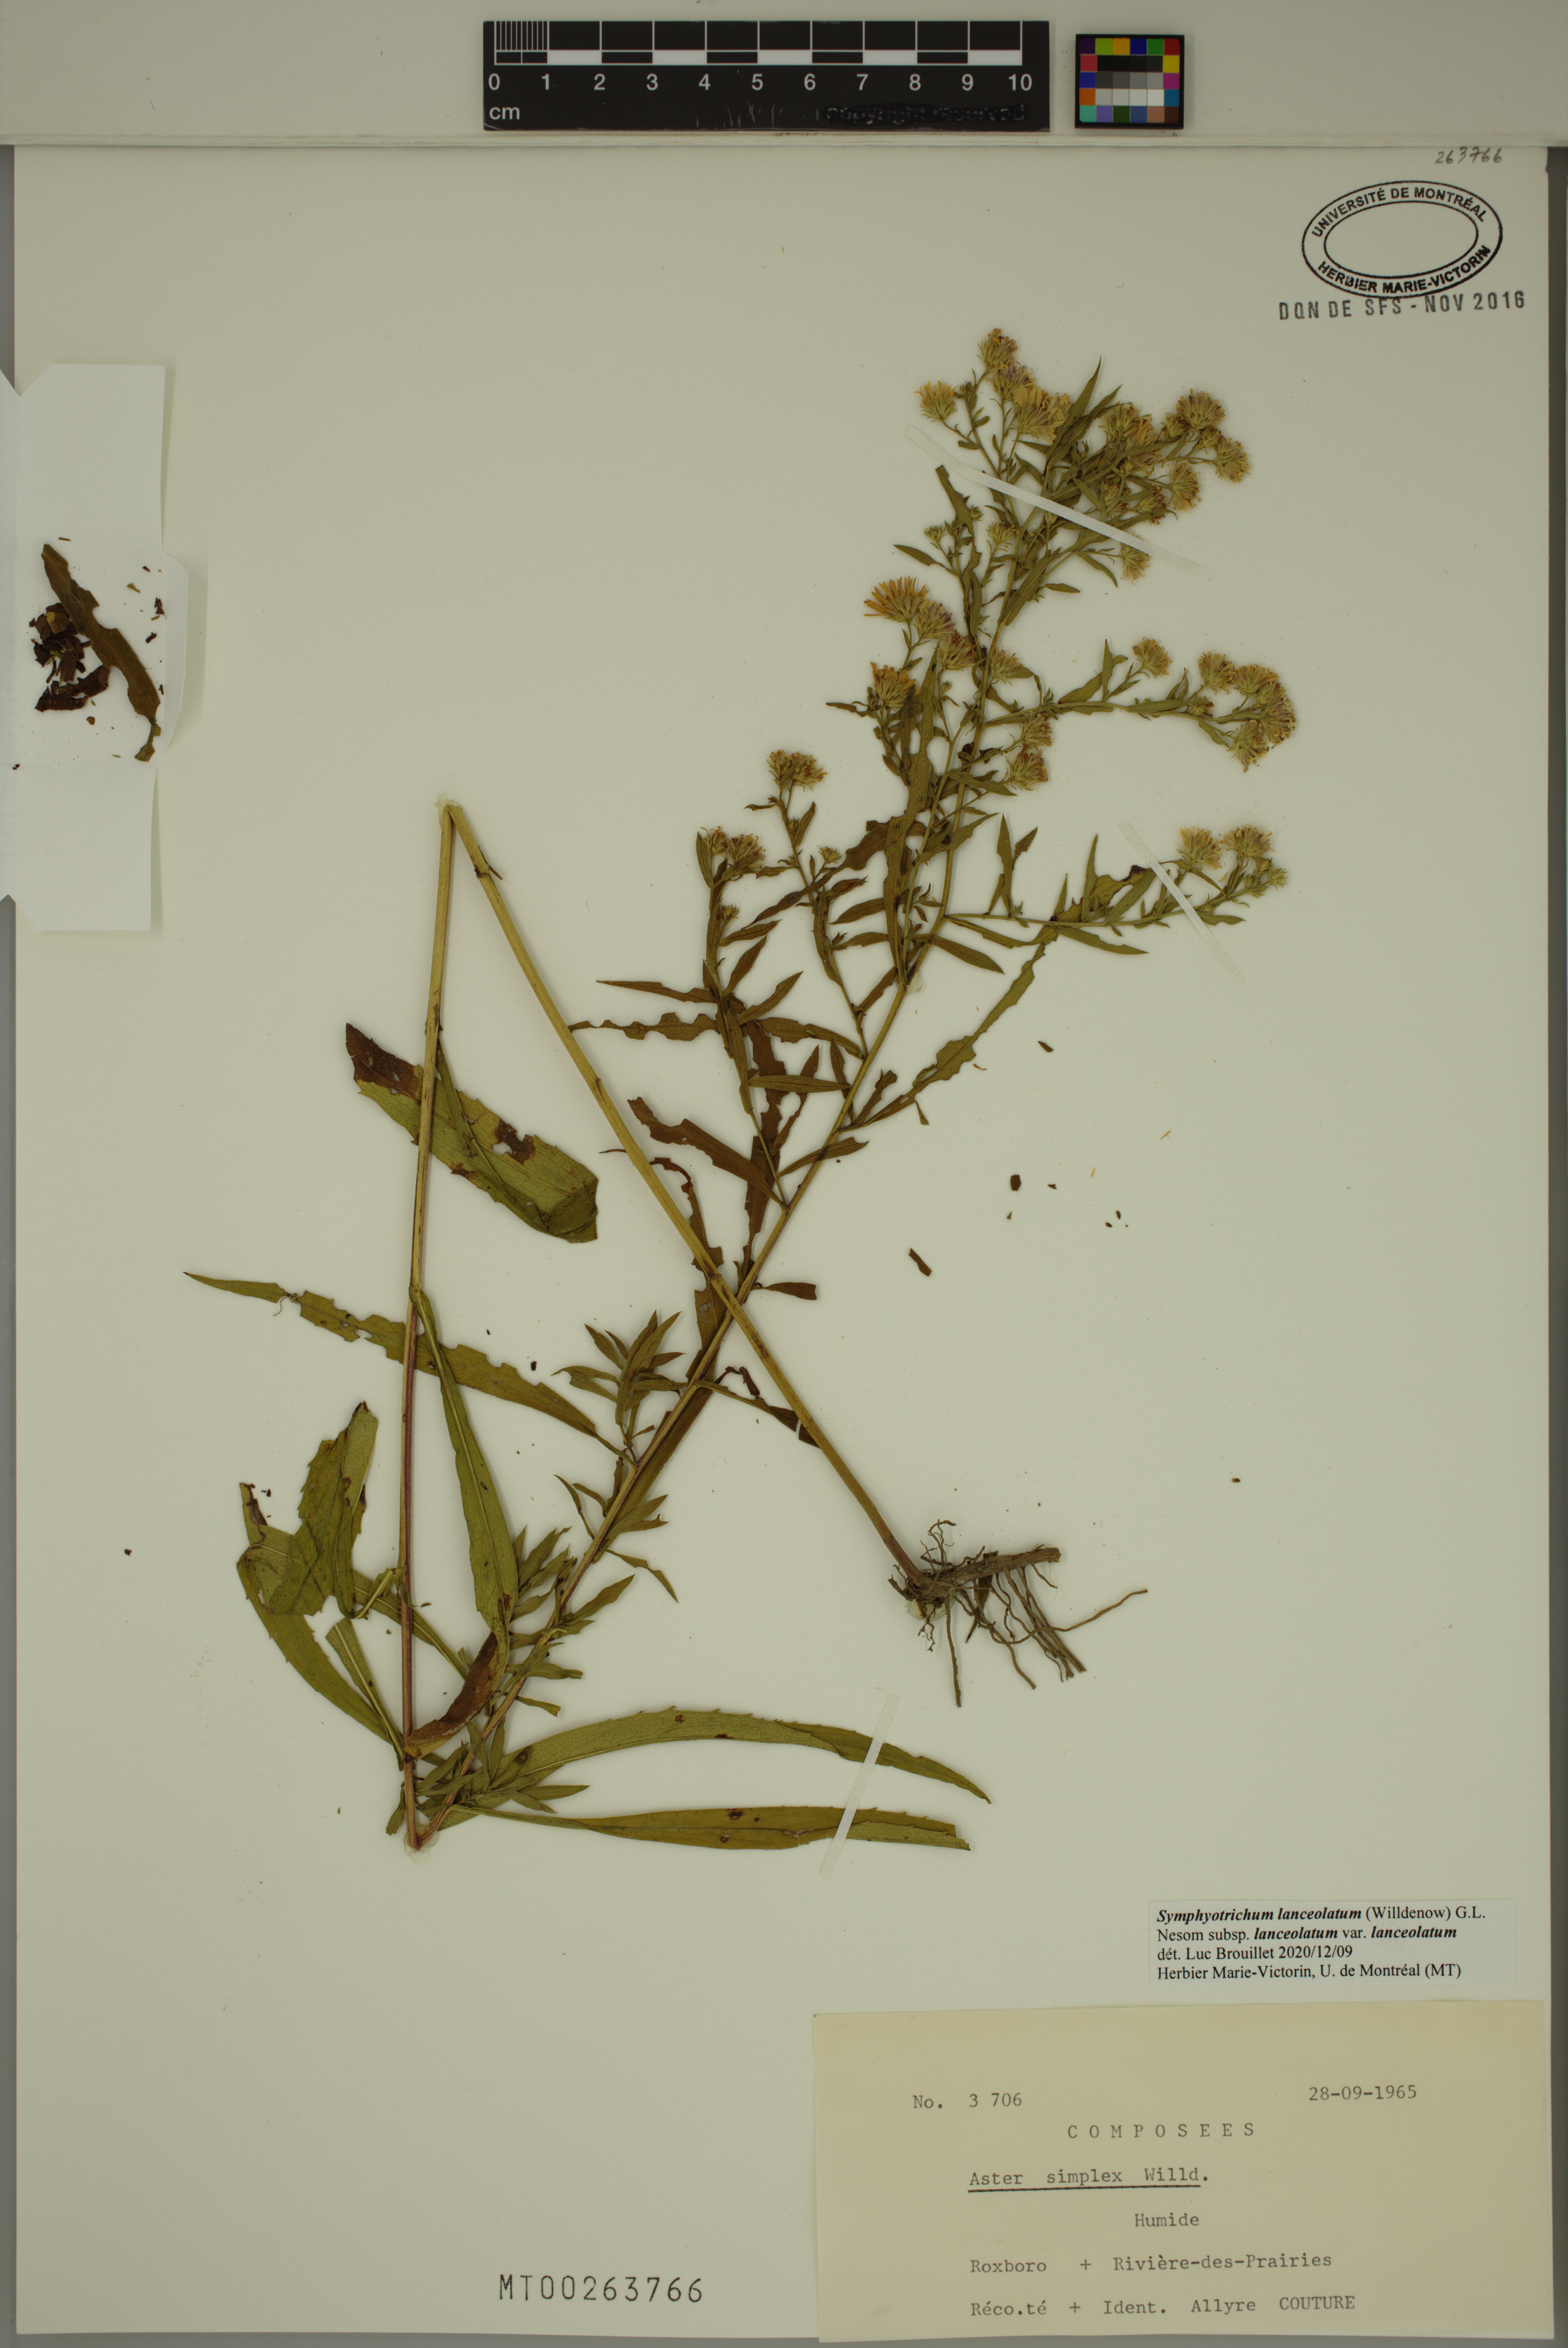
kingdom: Plantae
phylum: Tracheophyta
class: Magnoliopsida
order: Asterales
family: Asteraceae
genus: Symphyotrichum
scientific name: Symphyotrichum lanceolatum
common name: Panicled aster
